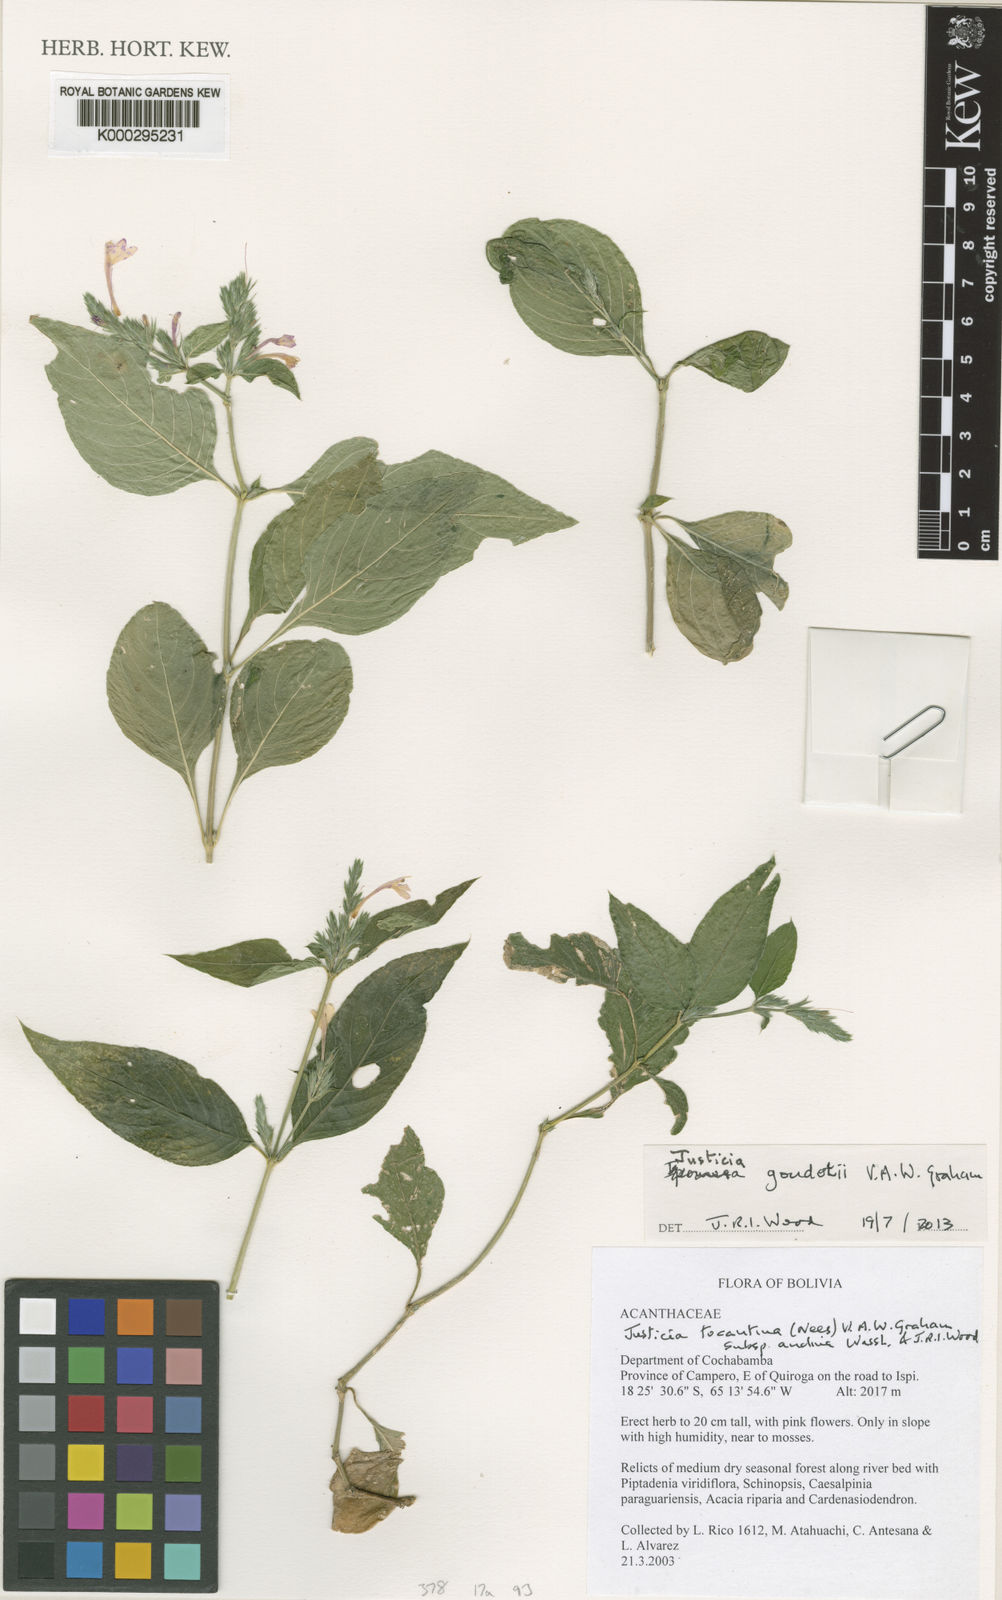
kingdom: Plantae
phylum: Tracheophyta
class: Magnoliopsida
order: Lamiales
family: Acanthaceae
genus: Justicia
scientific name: Justicia goudotii
